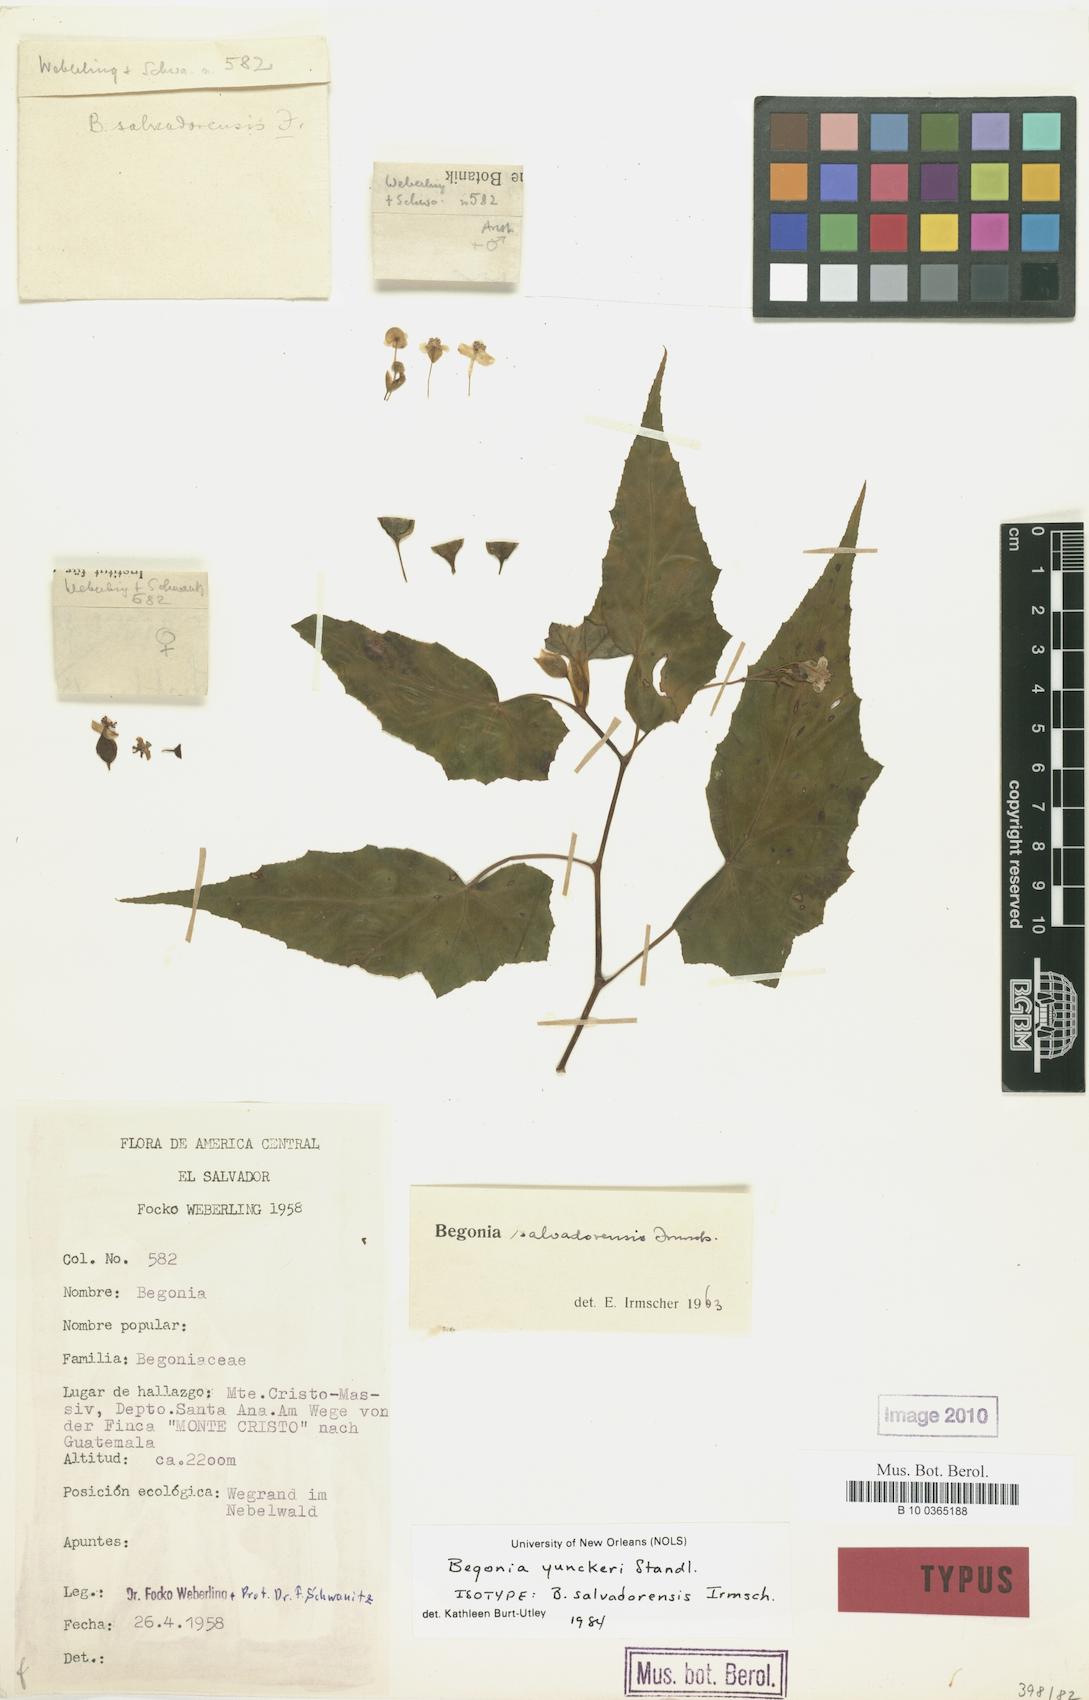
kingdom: Plantae
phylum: Tracheophyta
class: Magnoliopsida
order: Cucurbitales
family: Begoniaceae
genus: Begonia
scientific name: Begonia yunckeri
